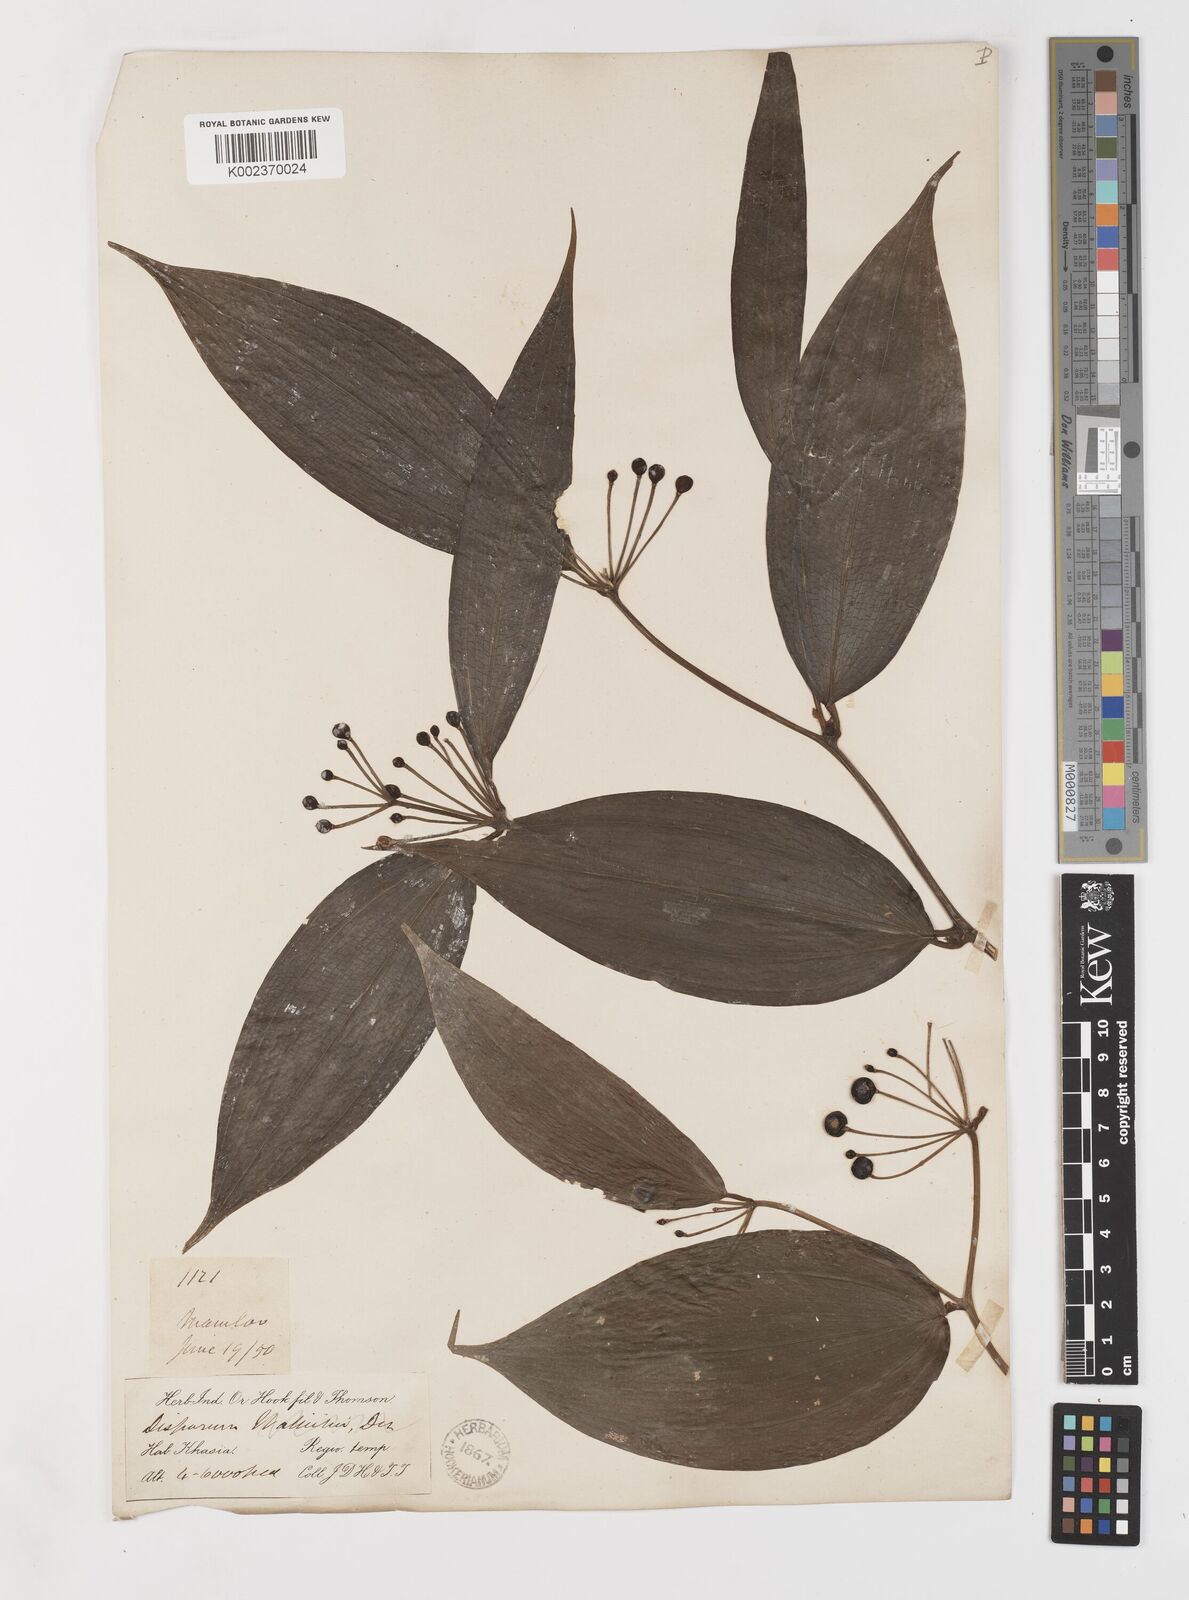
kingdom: Plantae
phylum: Tracheophyta
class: Liliopsida
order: Liliales
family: Colchicaceae
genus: Disporum
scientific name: Disporum cantoniense
